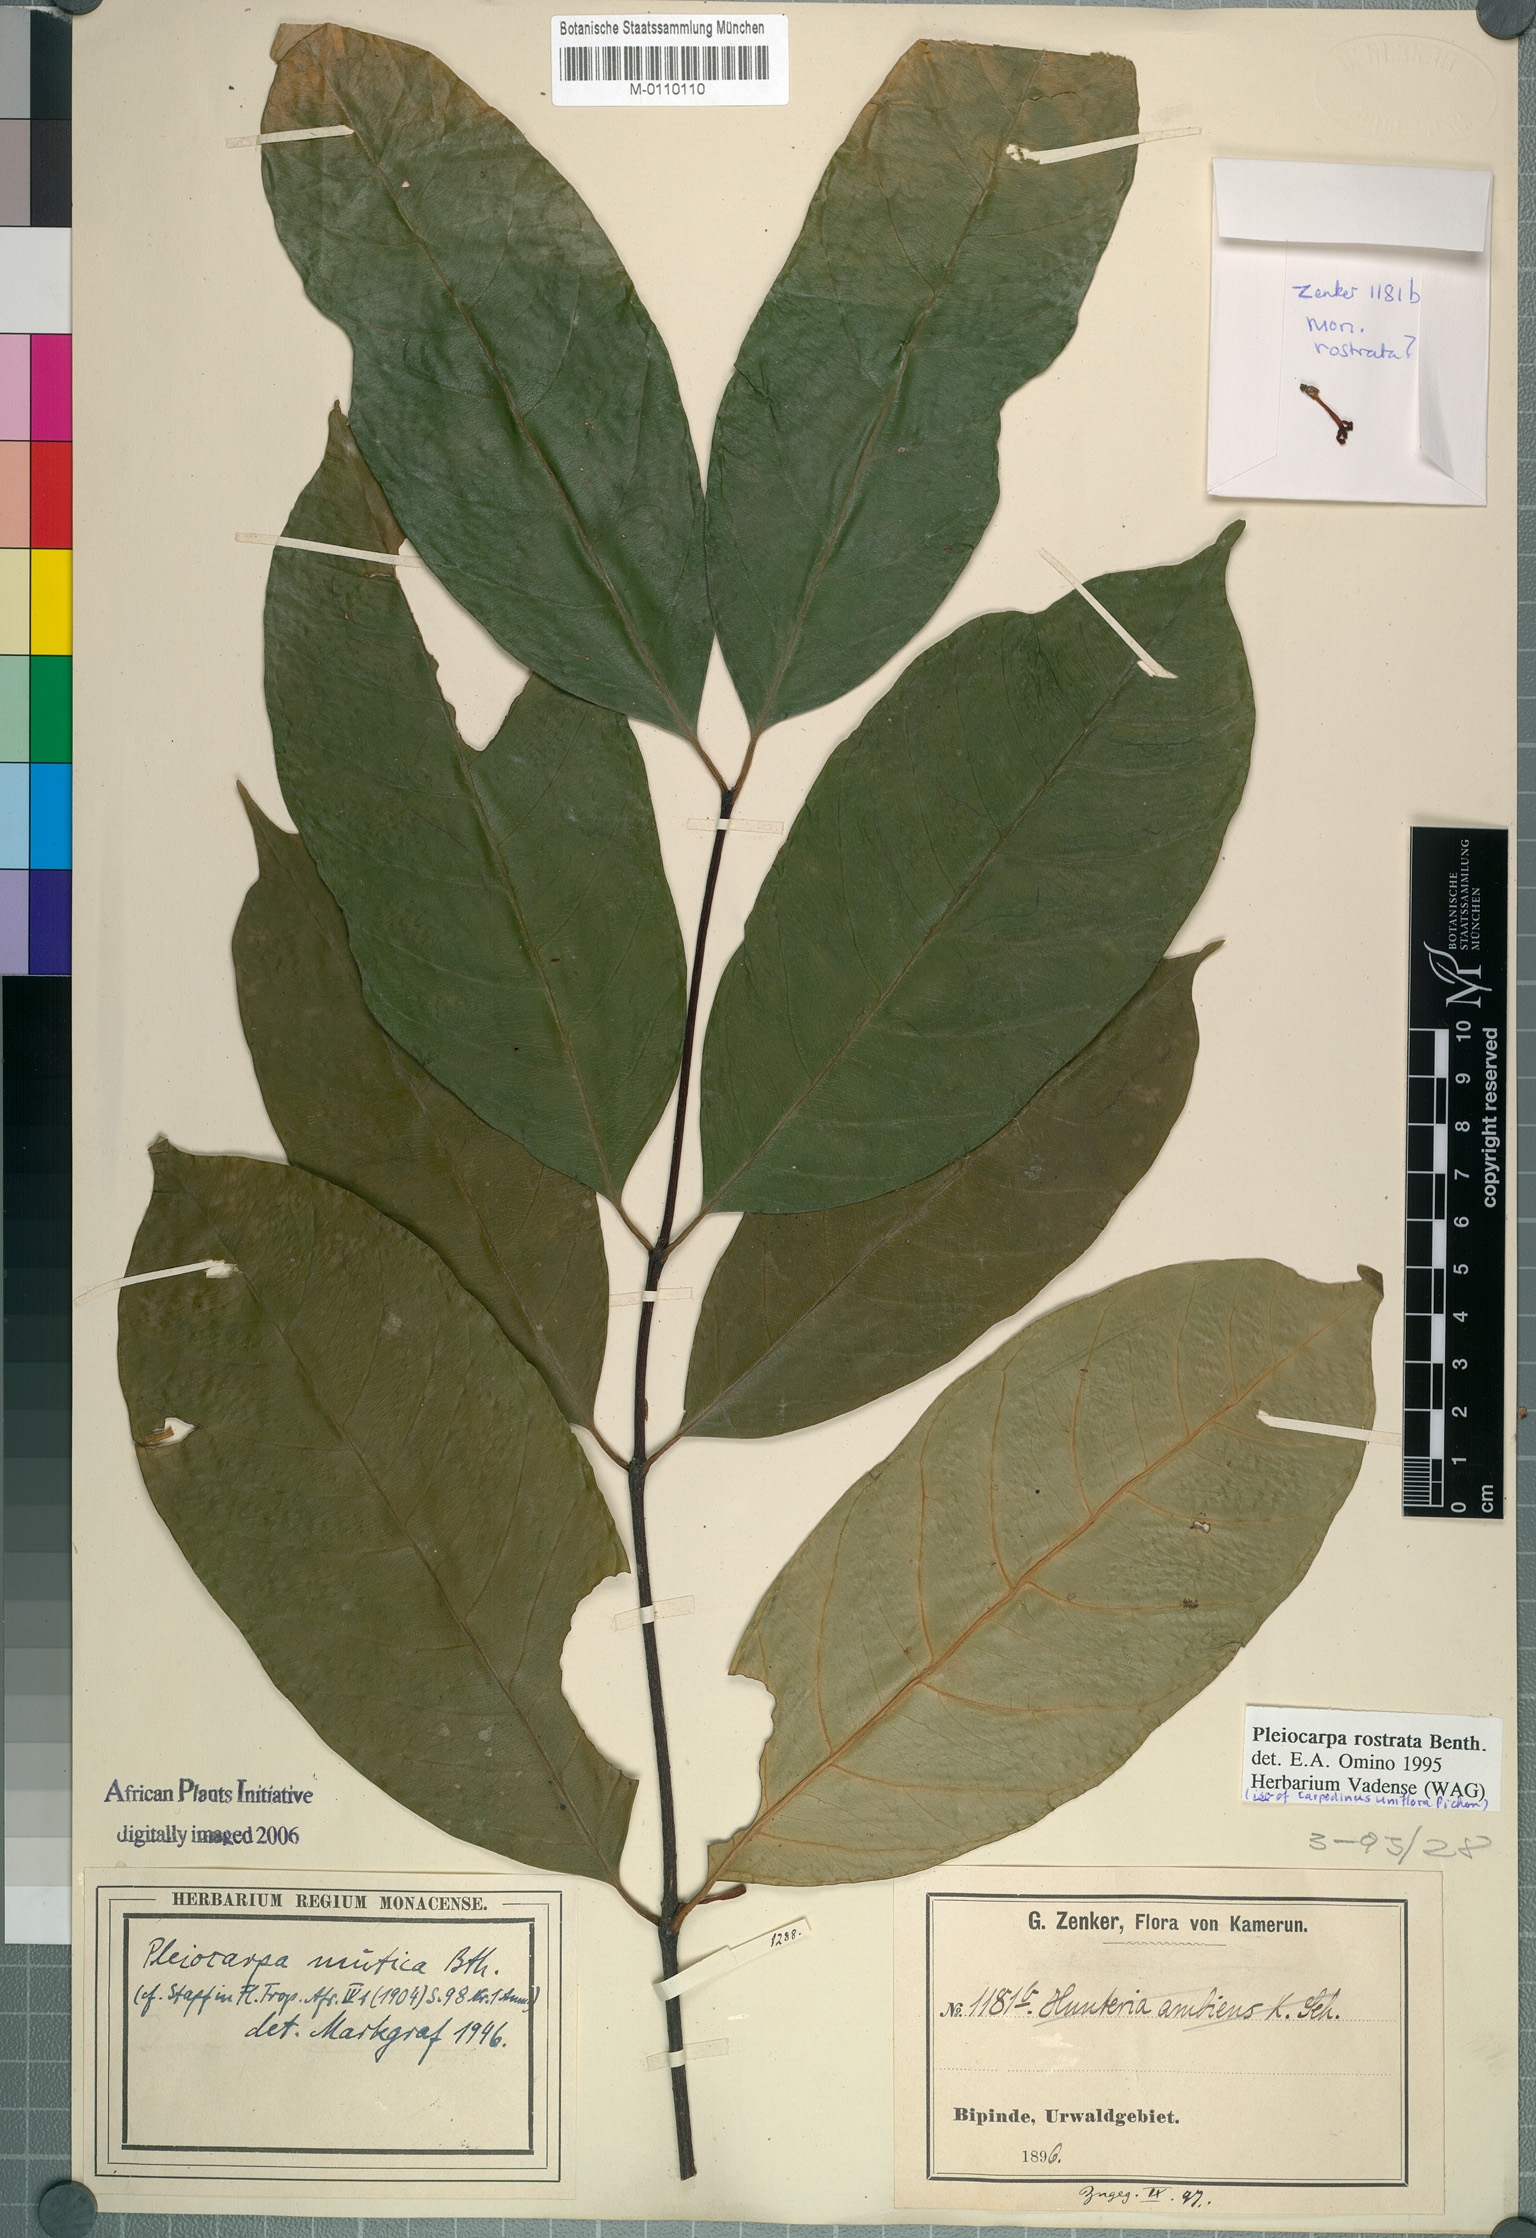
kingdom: Plantae
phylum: Tracheophyta
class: Magnoliopsida
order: Gentianales
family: Apocynaceae
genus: Pleiocarpa
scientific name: Pleiocarpa rostrata
